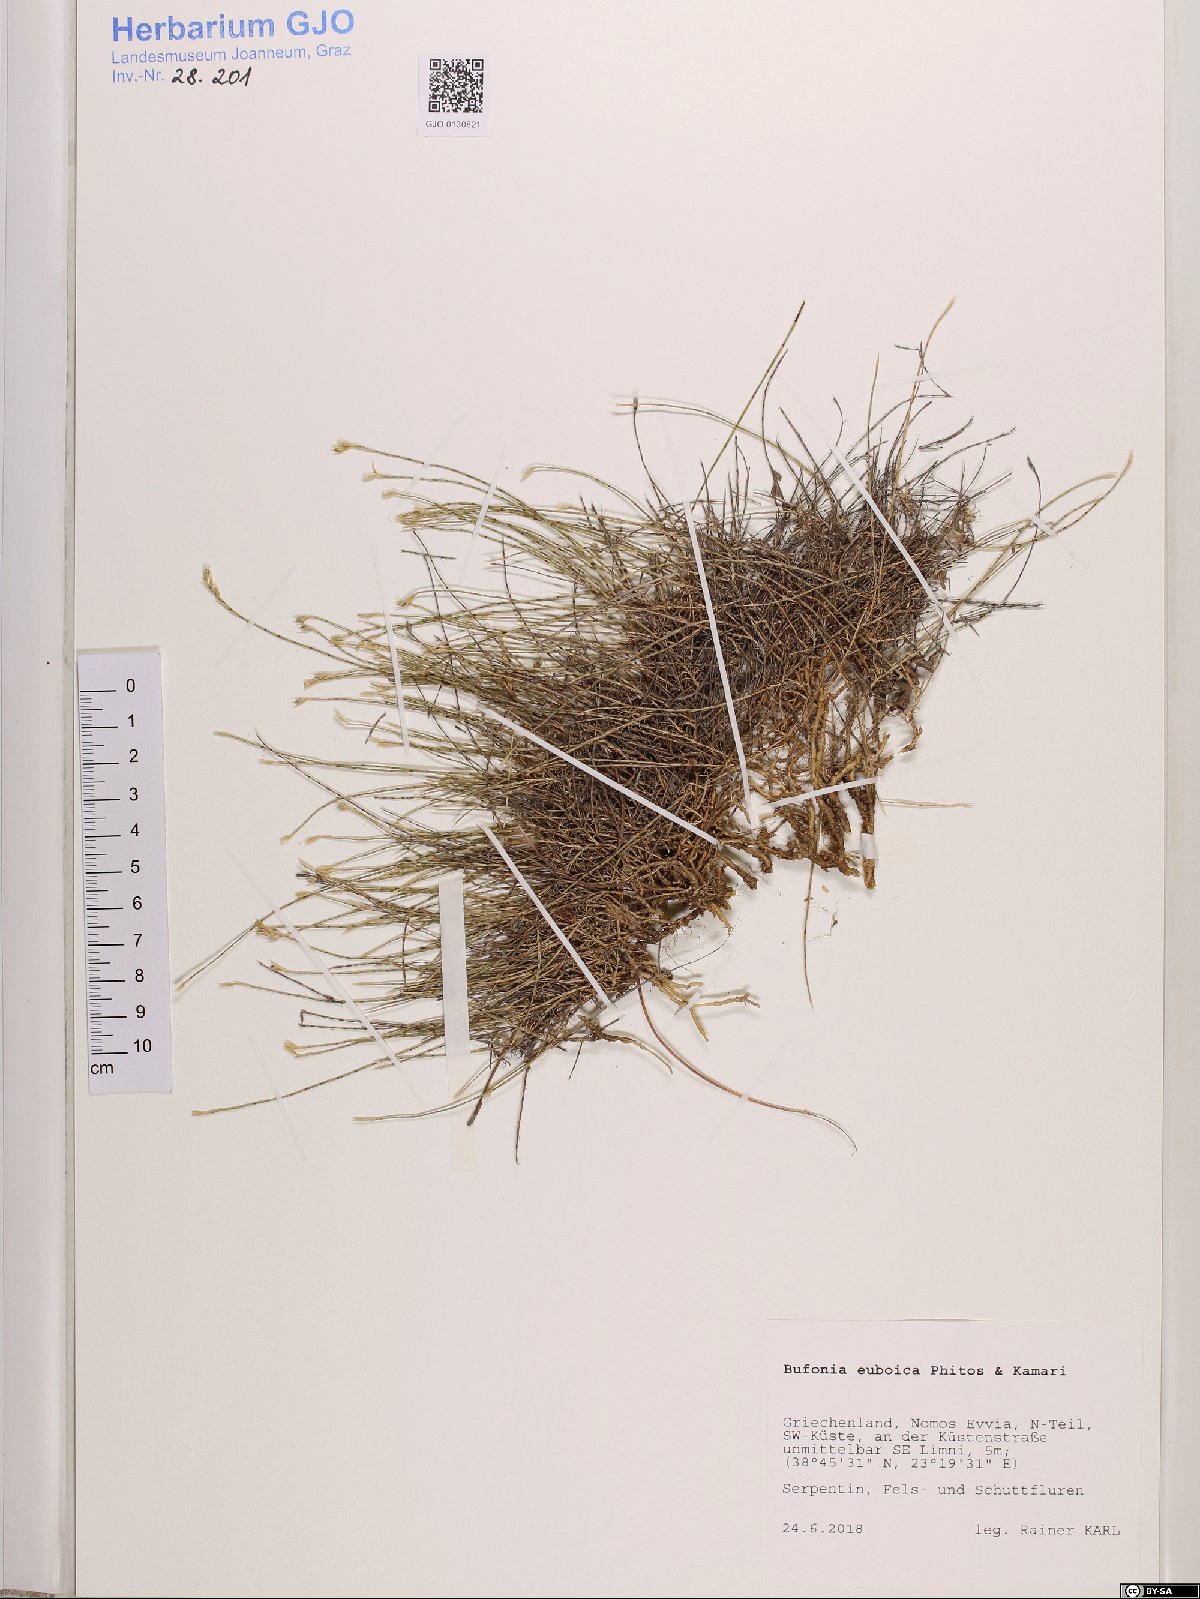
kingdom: Plantae
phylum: Tracheophyta
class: Magnoliopsida
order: Caryophyllales
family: Caryophyllaceae
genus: Bufonia
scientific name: Bufonia parviflora
